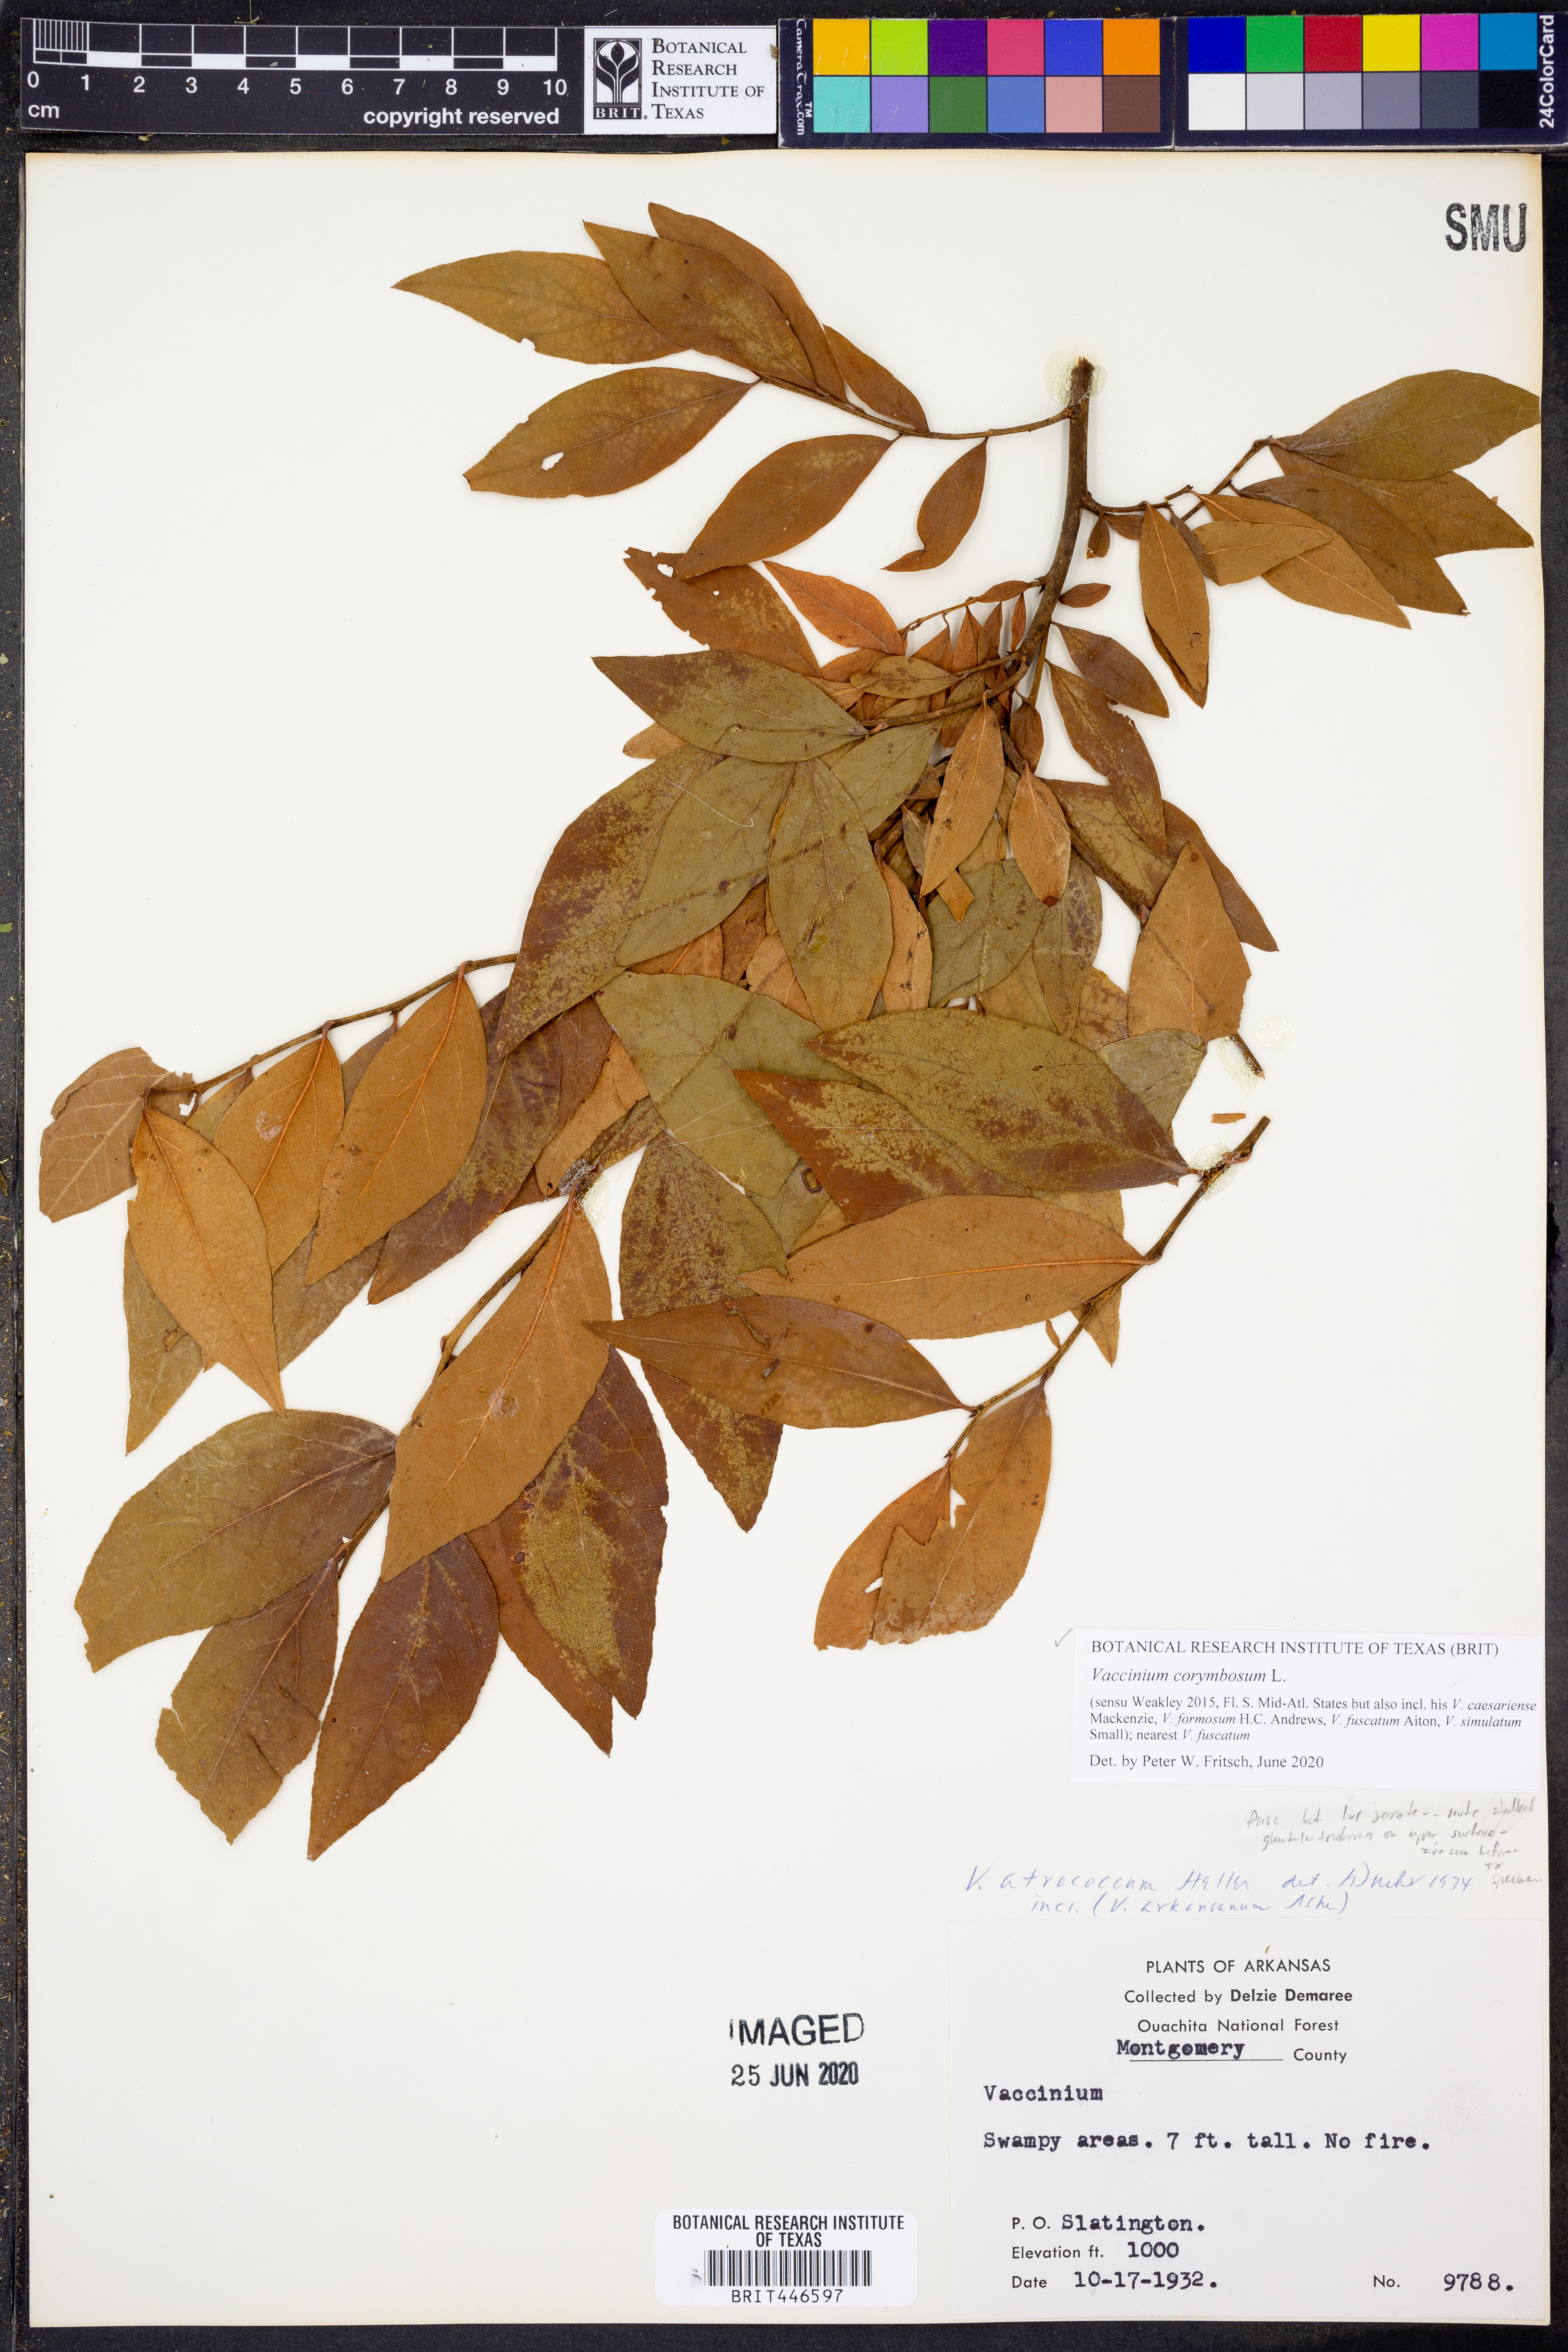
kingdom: Plantae
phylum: Tracheophyta
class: Magnoliopsida
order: Ericales
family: Ericaceae
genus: Vaccinium
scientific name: Vaccinium corymbosum
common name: Blueberry
